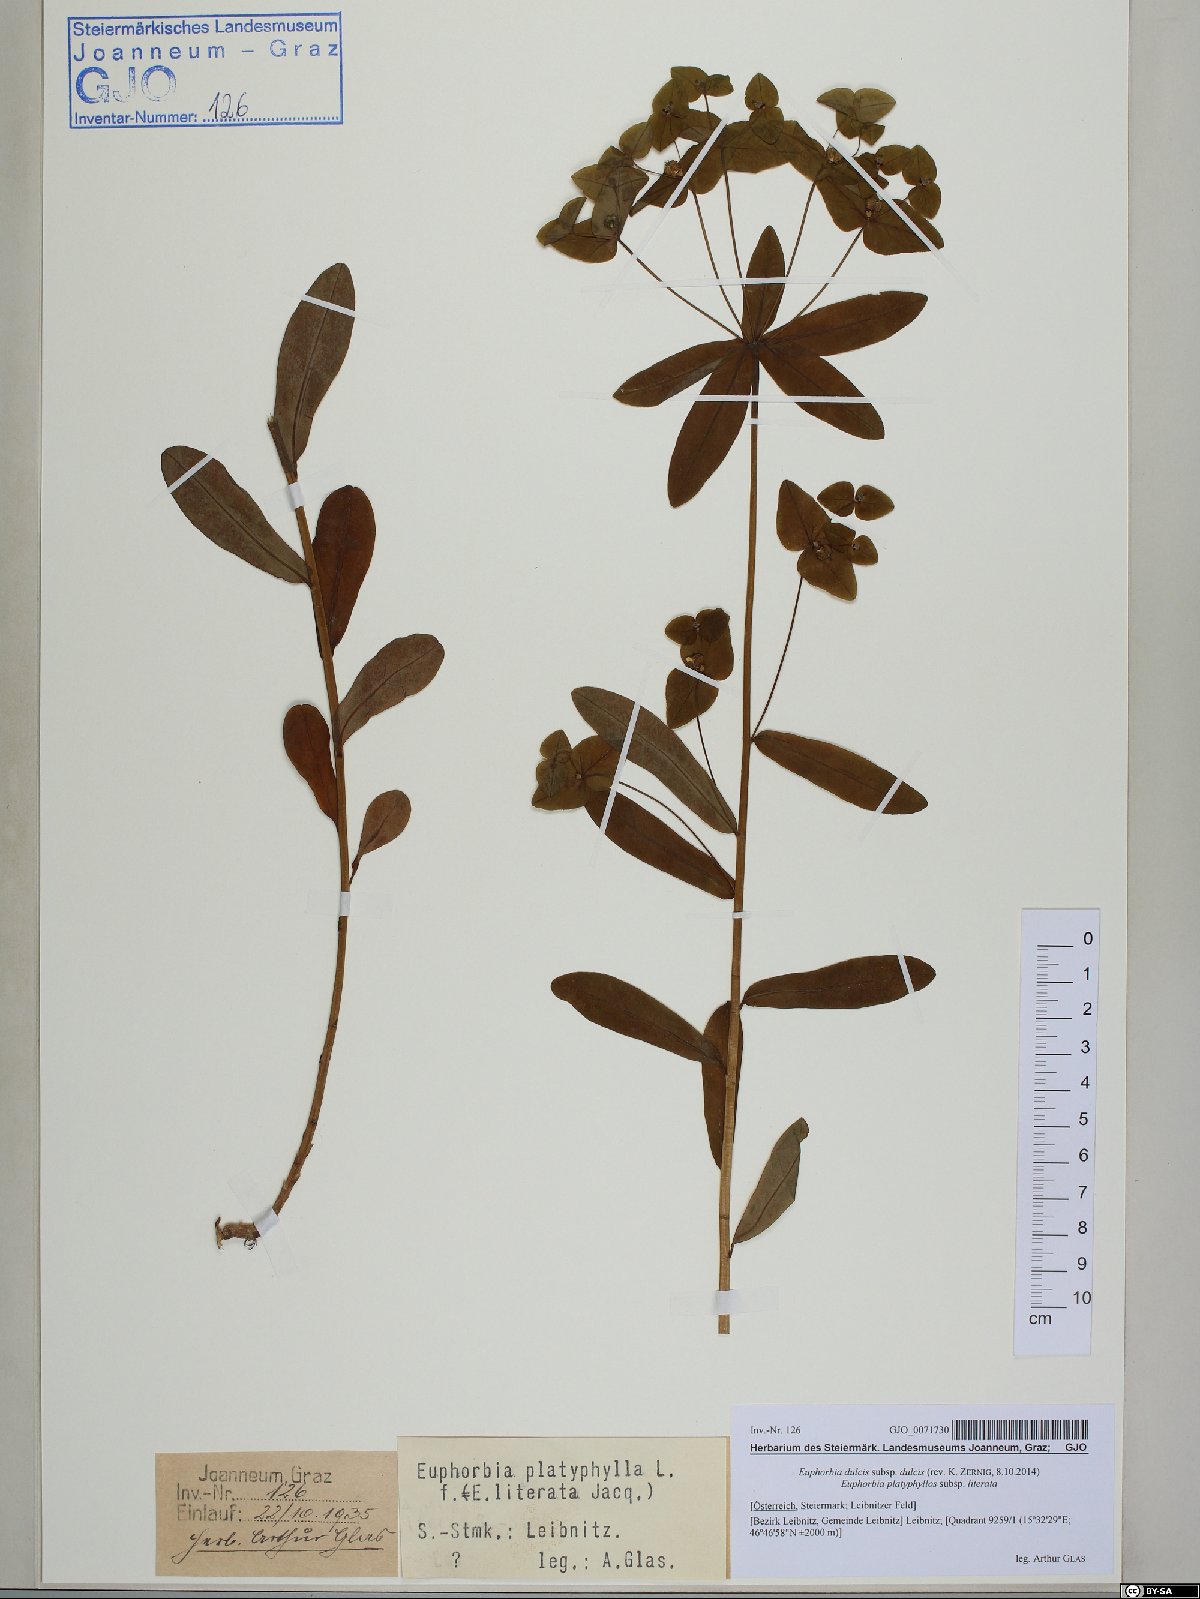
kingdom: Plantae
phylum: Tracheophyta
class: Magnoliopsida
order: Malpighiales
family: Euphorbiaceae
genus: Euphorbia
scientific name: Euphorbia dulcis
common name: Sweet spurge
